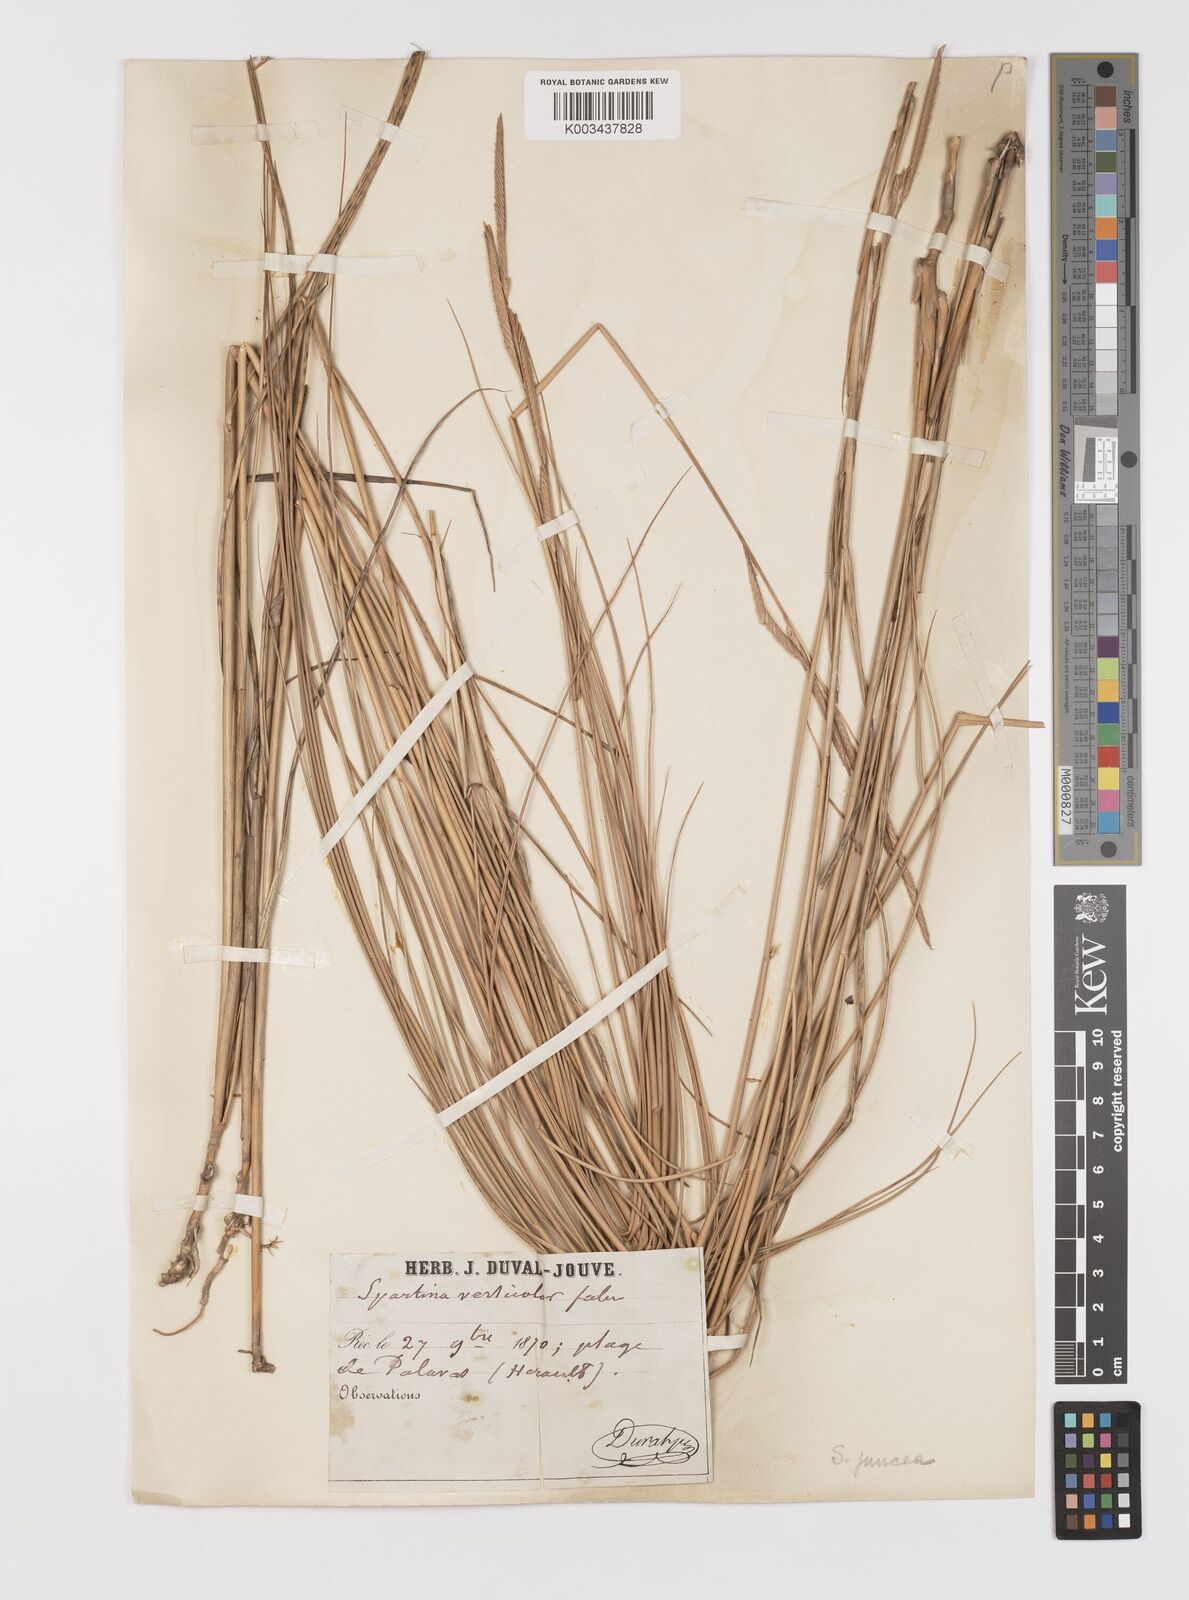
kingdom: Plantae
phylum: Tracheophyta
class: Liliopsida
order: Poales
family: Poaceae
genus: Sporobolus
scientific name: Sporobolus versicolor
